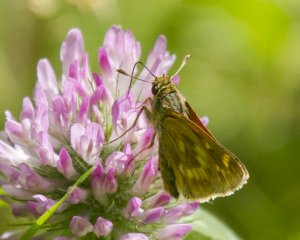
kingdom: Animalia
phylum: Arthropoda
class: Insecta
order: Lepidoptera
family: Hesperiidae
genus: Polites
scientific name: Polites
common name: Long Dash Skipper
